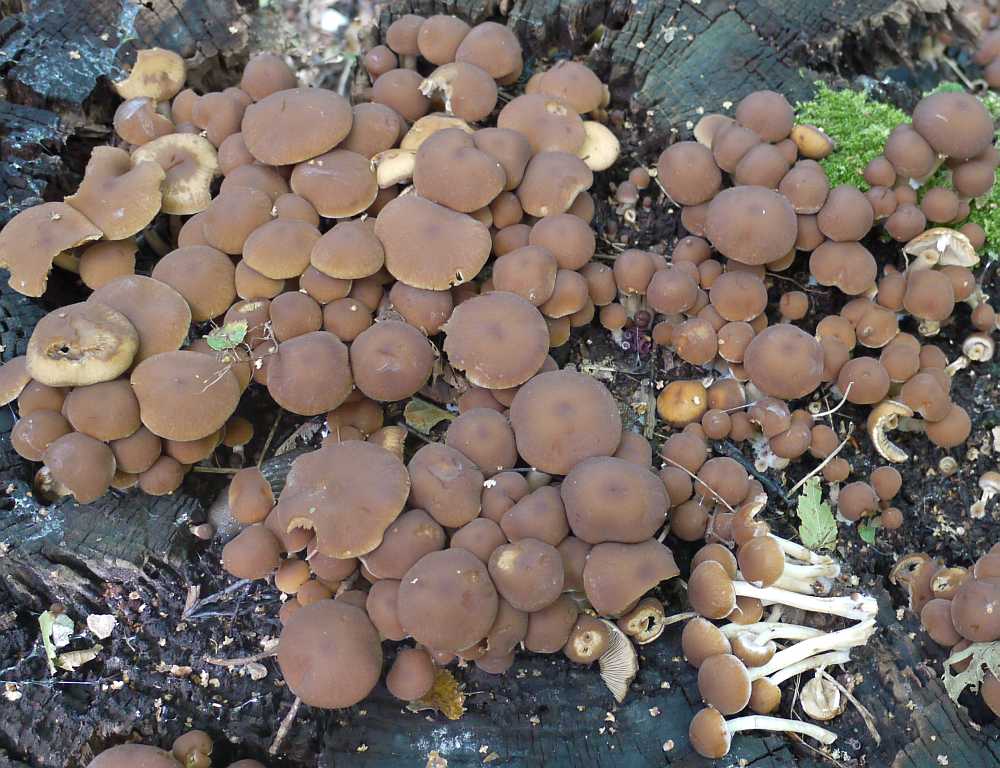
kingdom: Fungi
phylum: Basidiomycota
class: Agaricomycetes
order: Agaricales
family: Psathyrellaceae
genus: Psathyrella
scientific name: Psathyrella piluliformis
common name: lysstokket mørkhat
